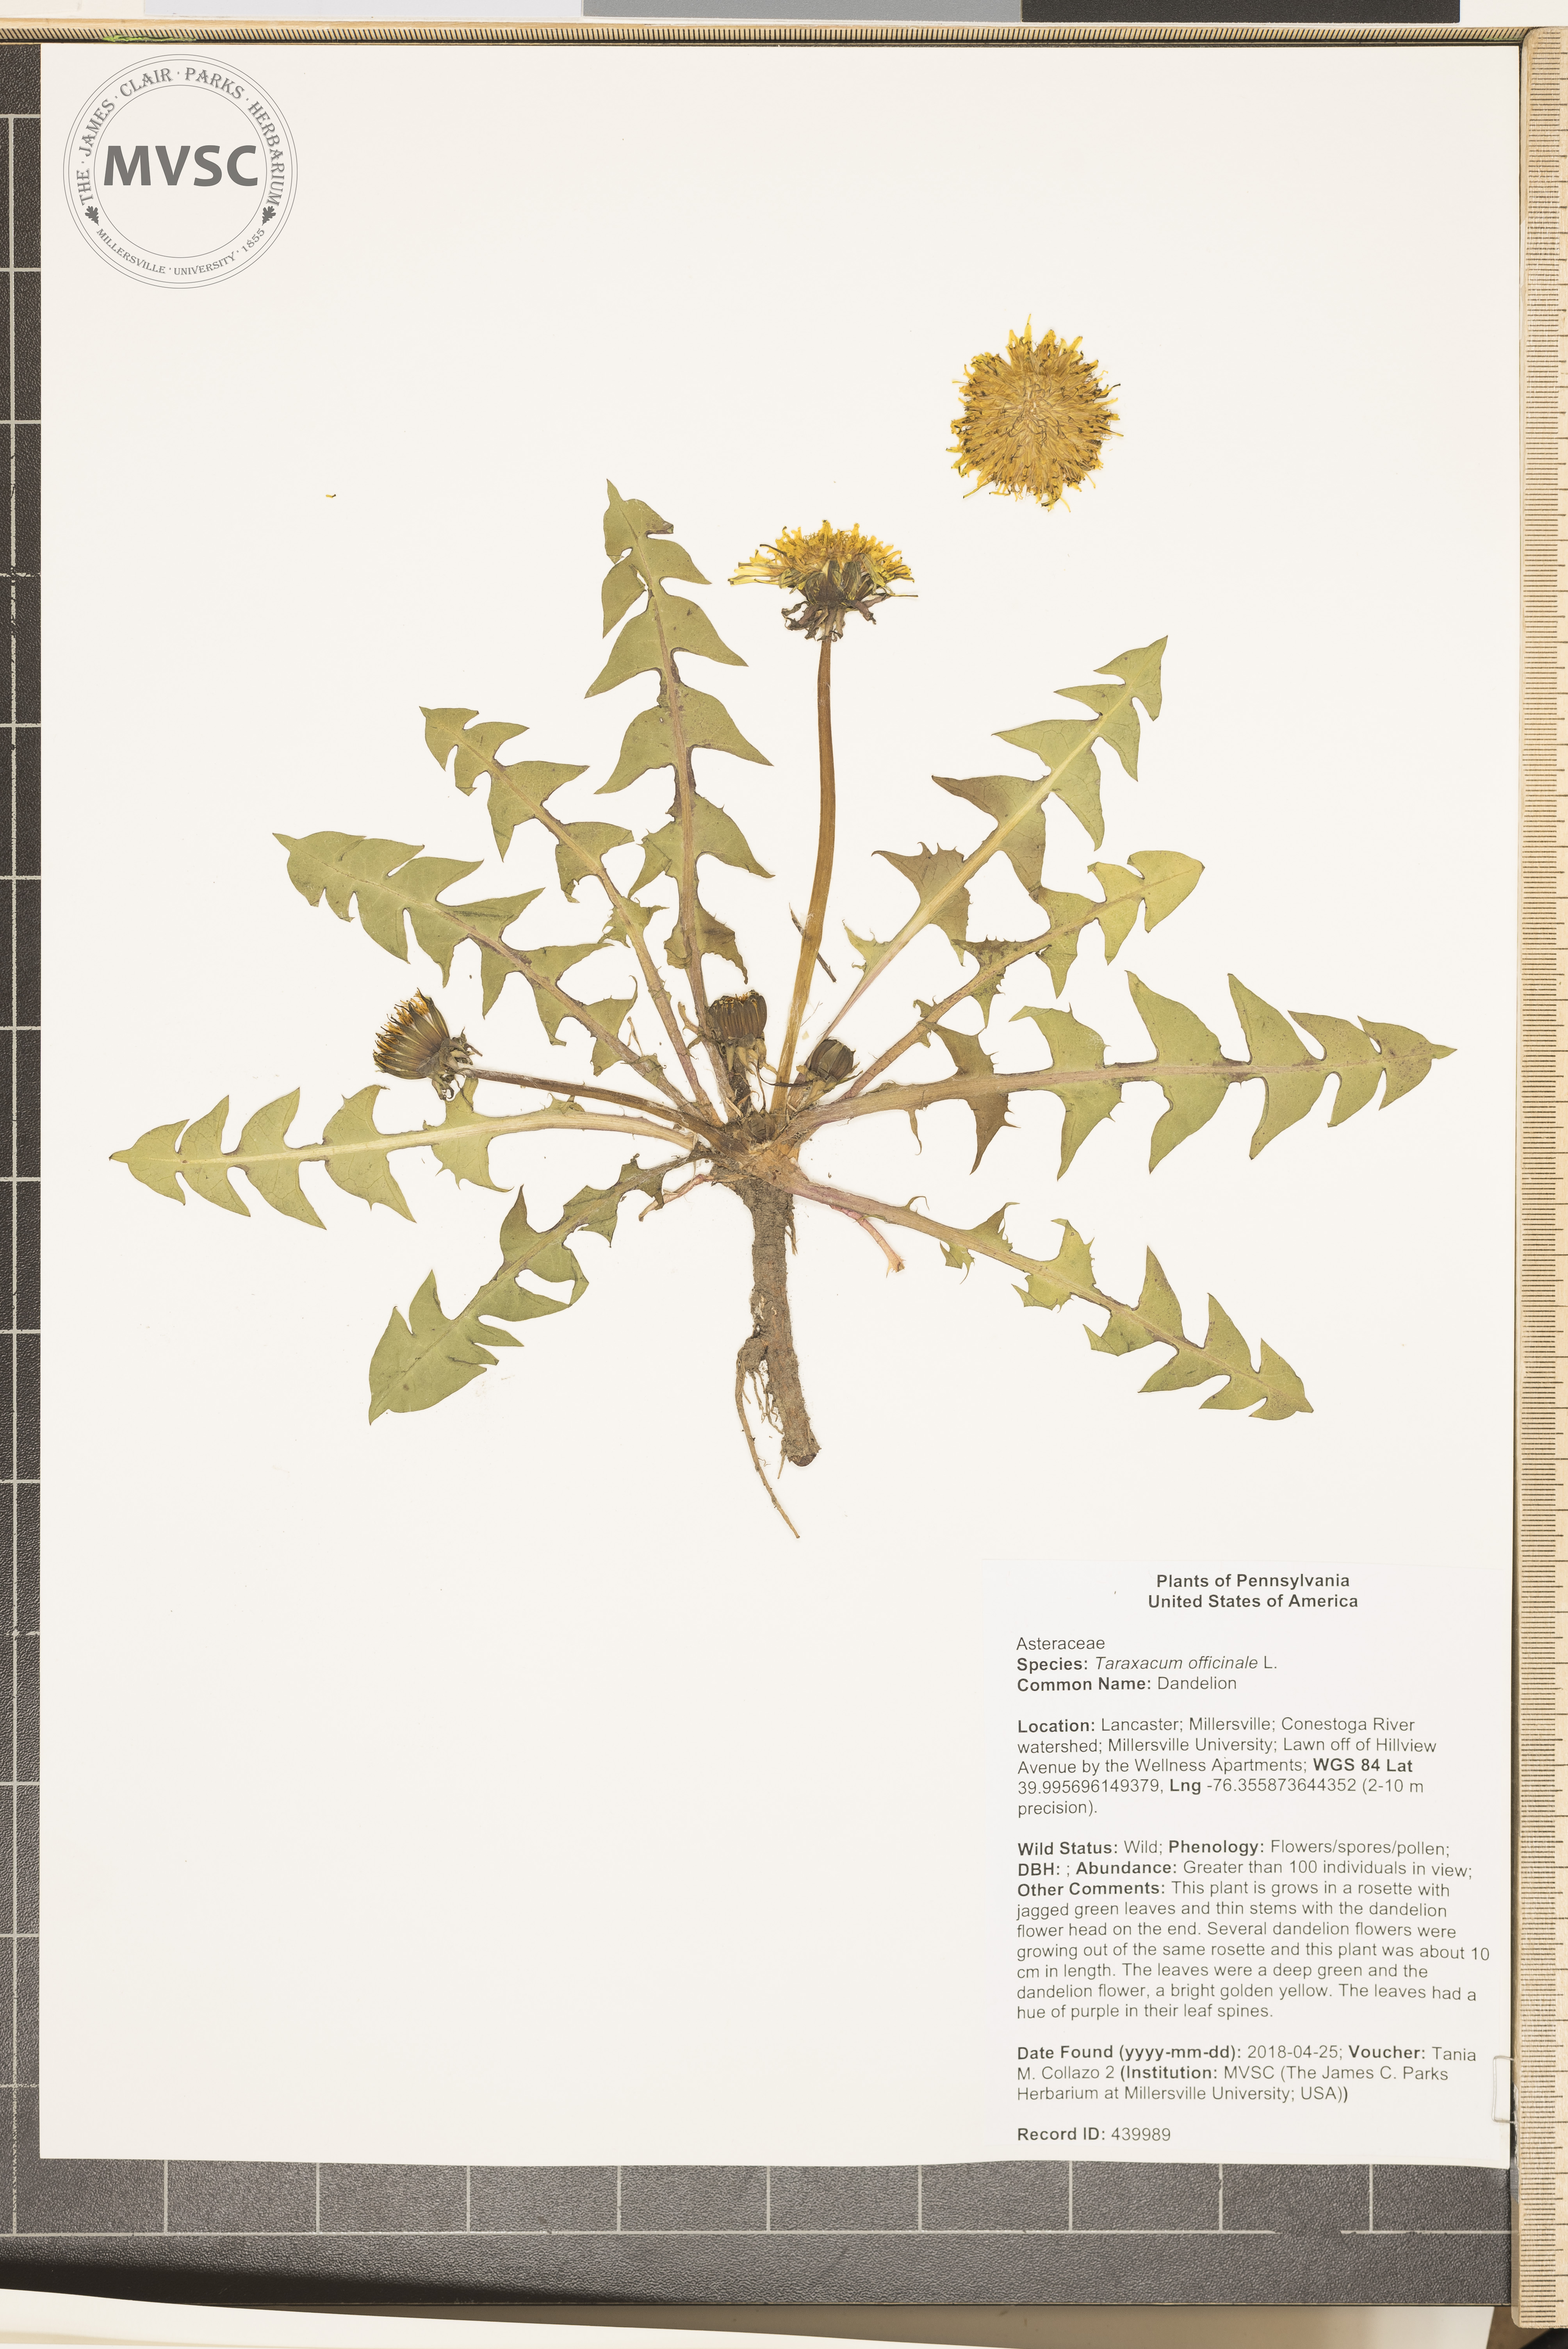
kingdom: Plantae
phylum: Tracheophyta
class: Magnoliopsida
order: Asterales
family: Asteraceae
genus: Taraxacum
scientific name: Taraxacum officinale
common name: Dandelion
